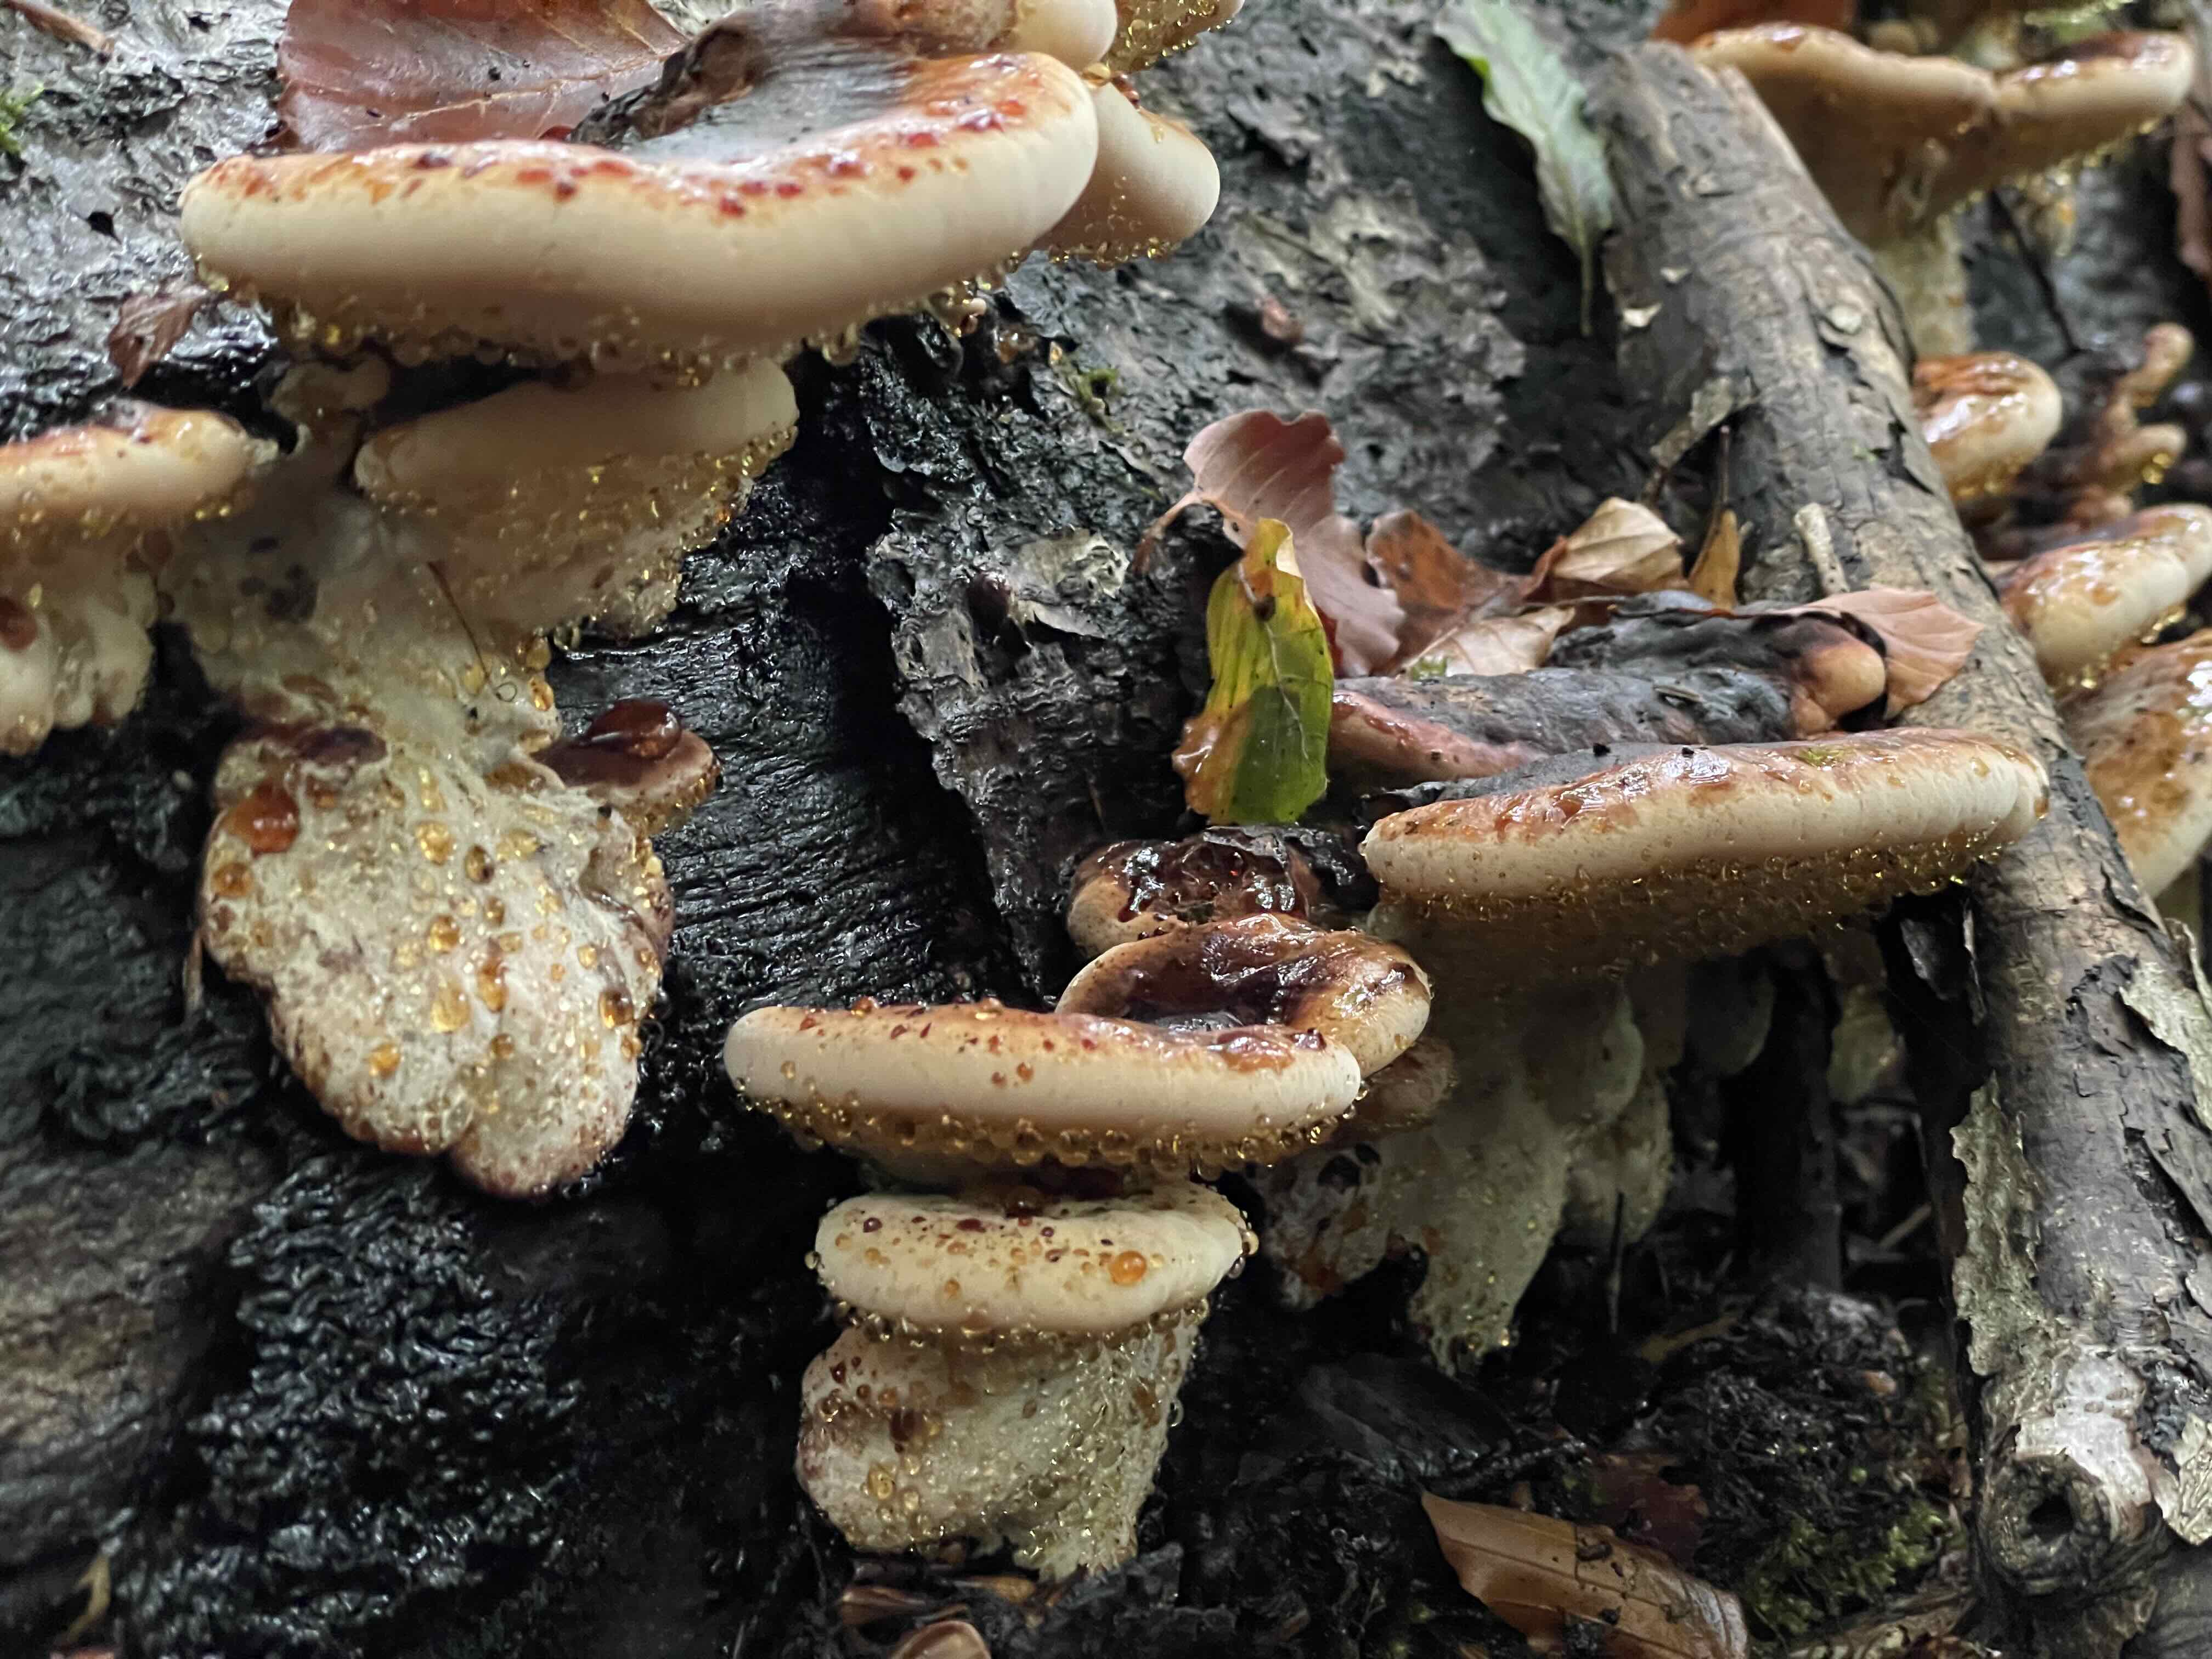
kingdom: Fungi
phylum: Basidiomycota
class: Agaricomycetes
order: Polyporales
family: Ischnodermataceae
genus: Ischnoderma
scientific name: Ischnoderma resinosum
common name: løv-tjæreporesvamp
